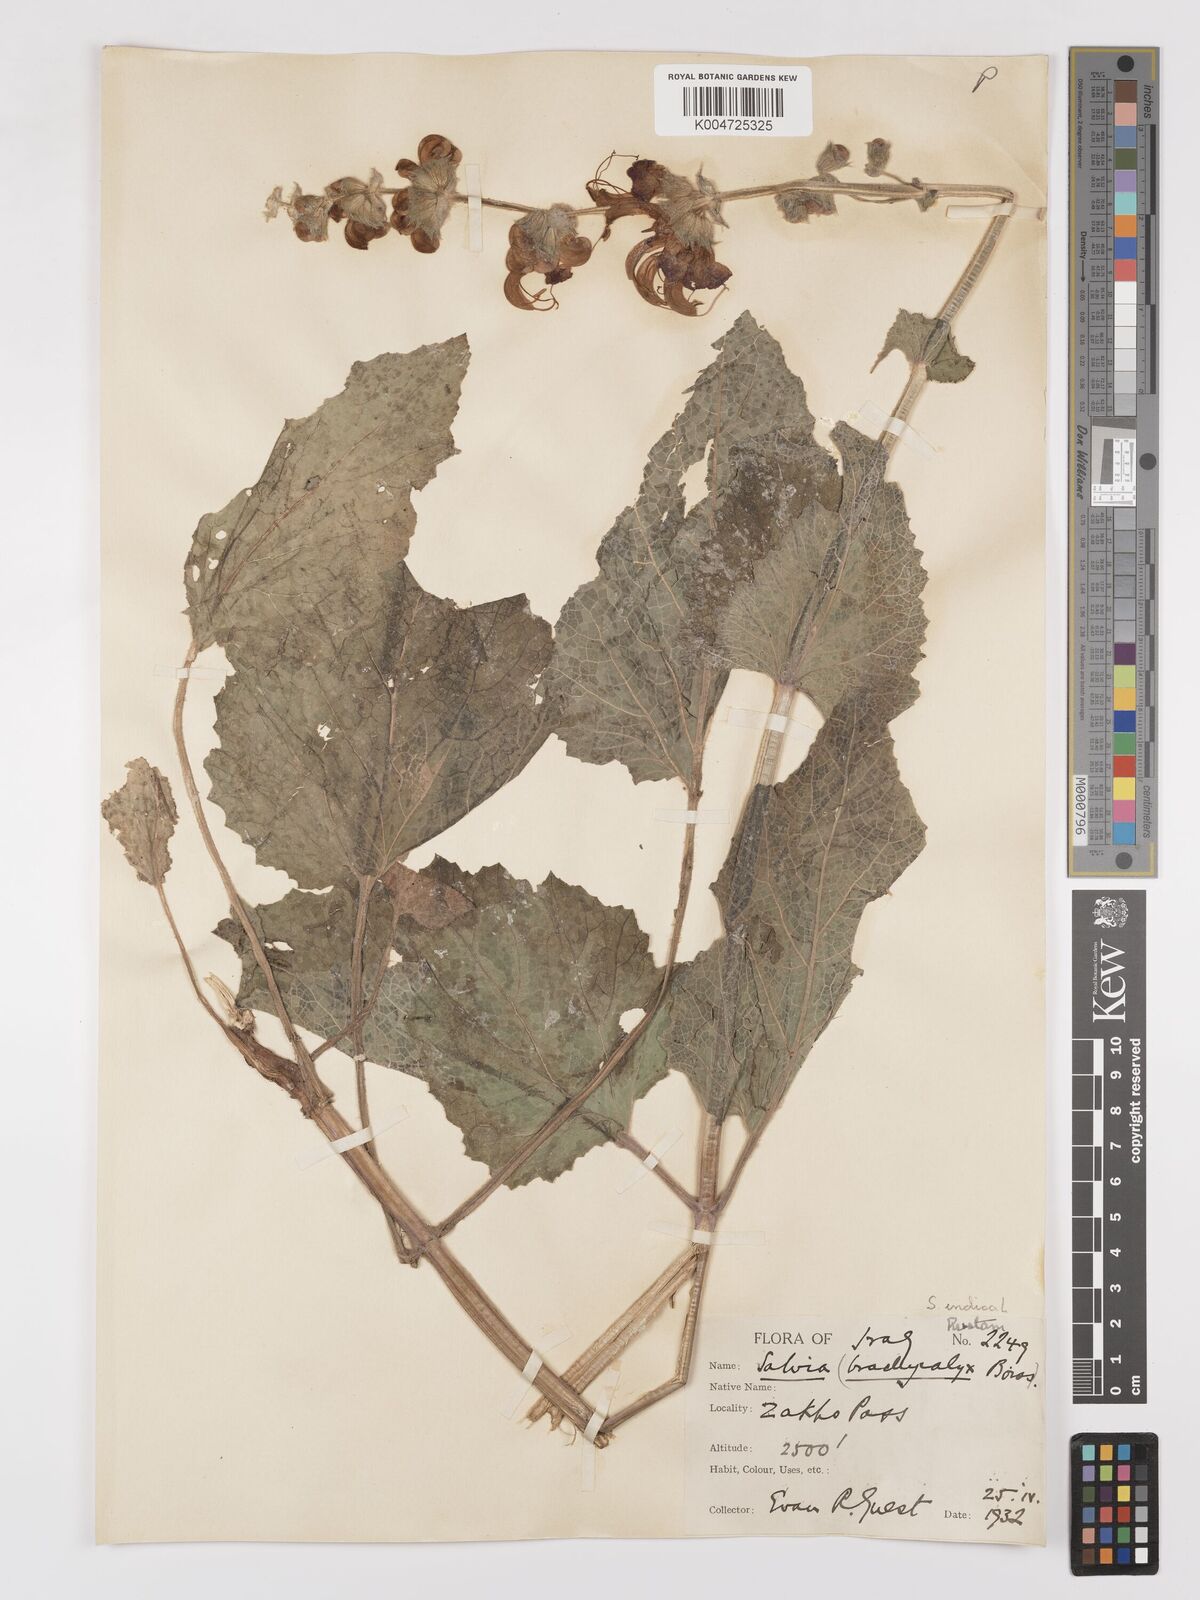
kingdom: Plantae
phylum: Tracheophyta
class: Magnoliopsida
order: Lamiales
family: Lamiaceae
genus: Salvia
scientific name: Salvia indica
